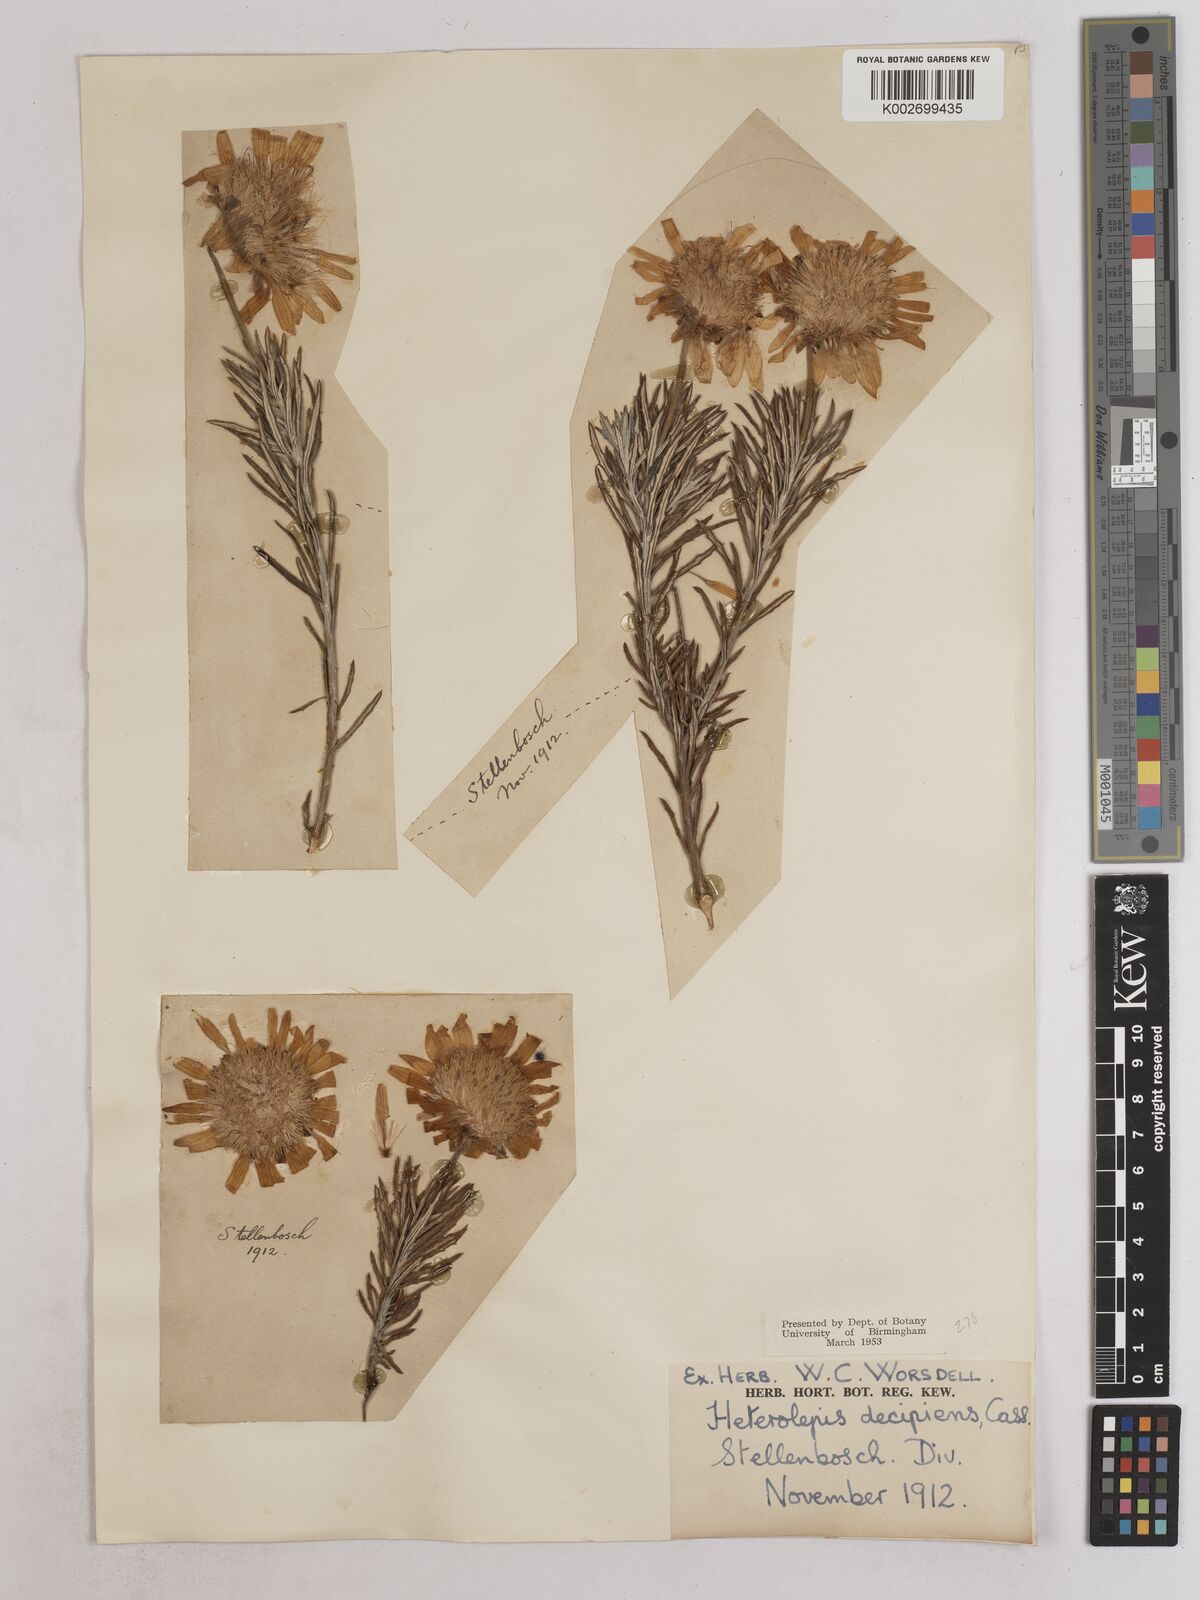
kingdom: Plantae
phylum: Tracheophyta
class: Magnoliopsida
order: Asterales
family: Asteraceae
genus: Heterolepis
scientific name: Heterolepis aliena
